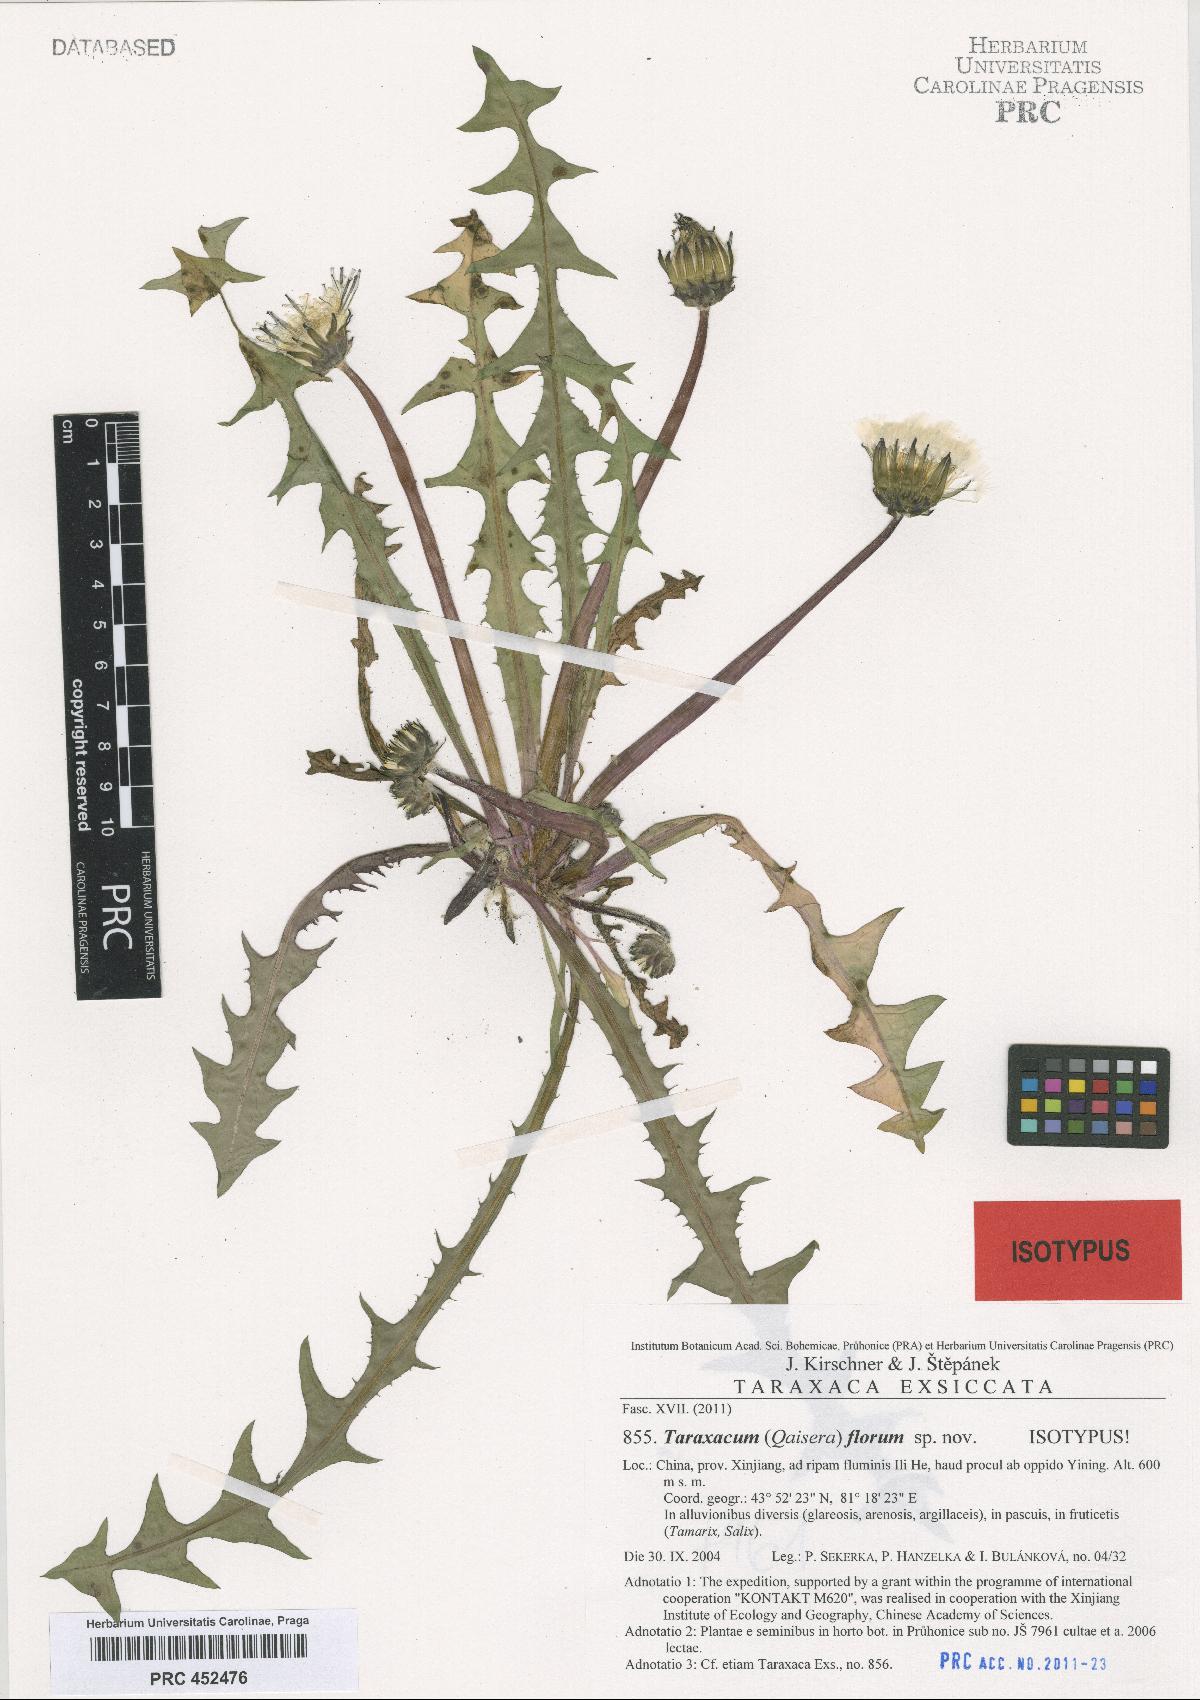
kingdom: Plantae
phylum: Tracheophyta
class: Magnoliopsida
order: Asterales
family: Asteraceae
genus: Taraxacum
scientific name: Taraxacum florum
